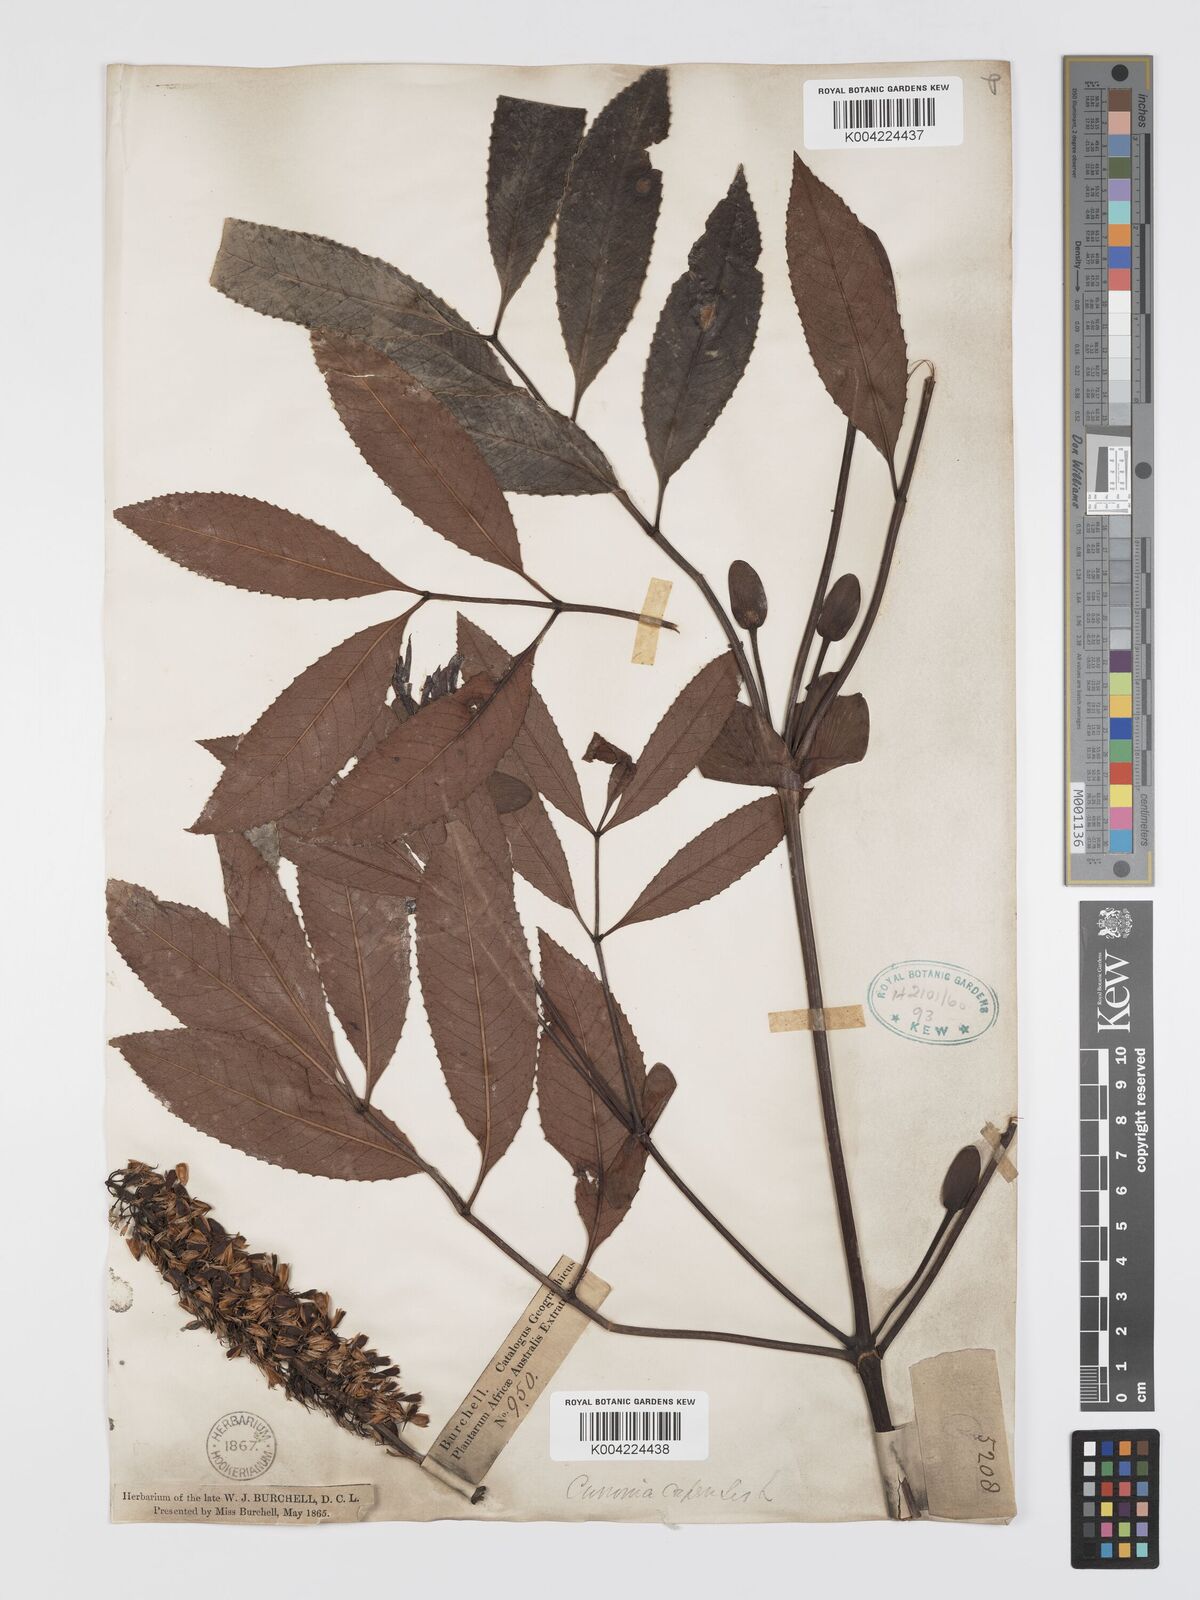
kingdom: Plantae
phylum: Tracheophyta
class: Magnoliopsida
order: Oxalidales
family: Cunoniaceae
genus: Cunonia
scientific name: Cunonia capensis
